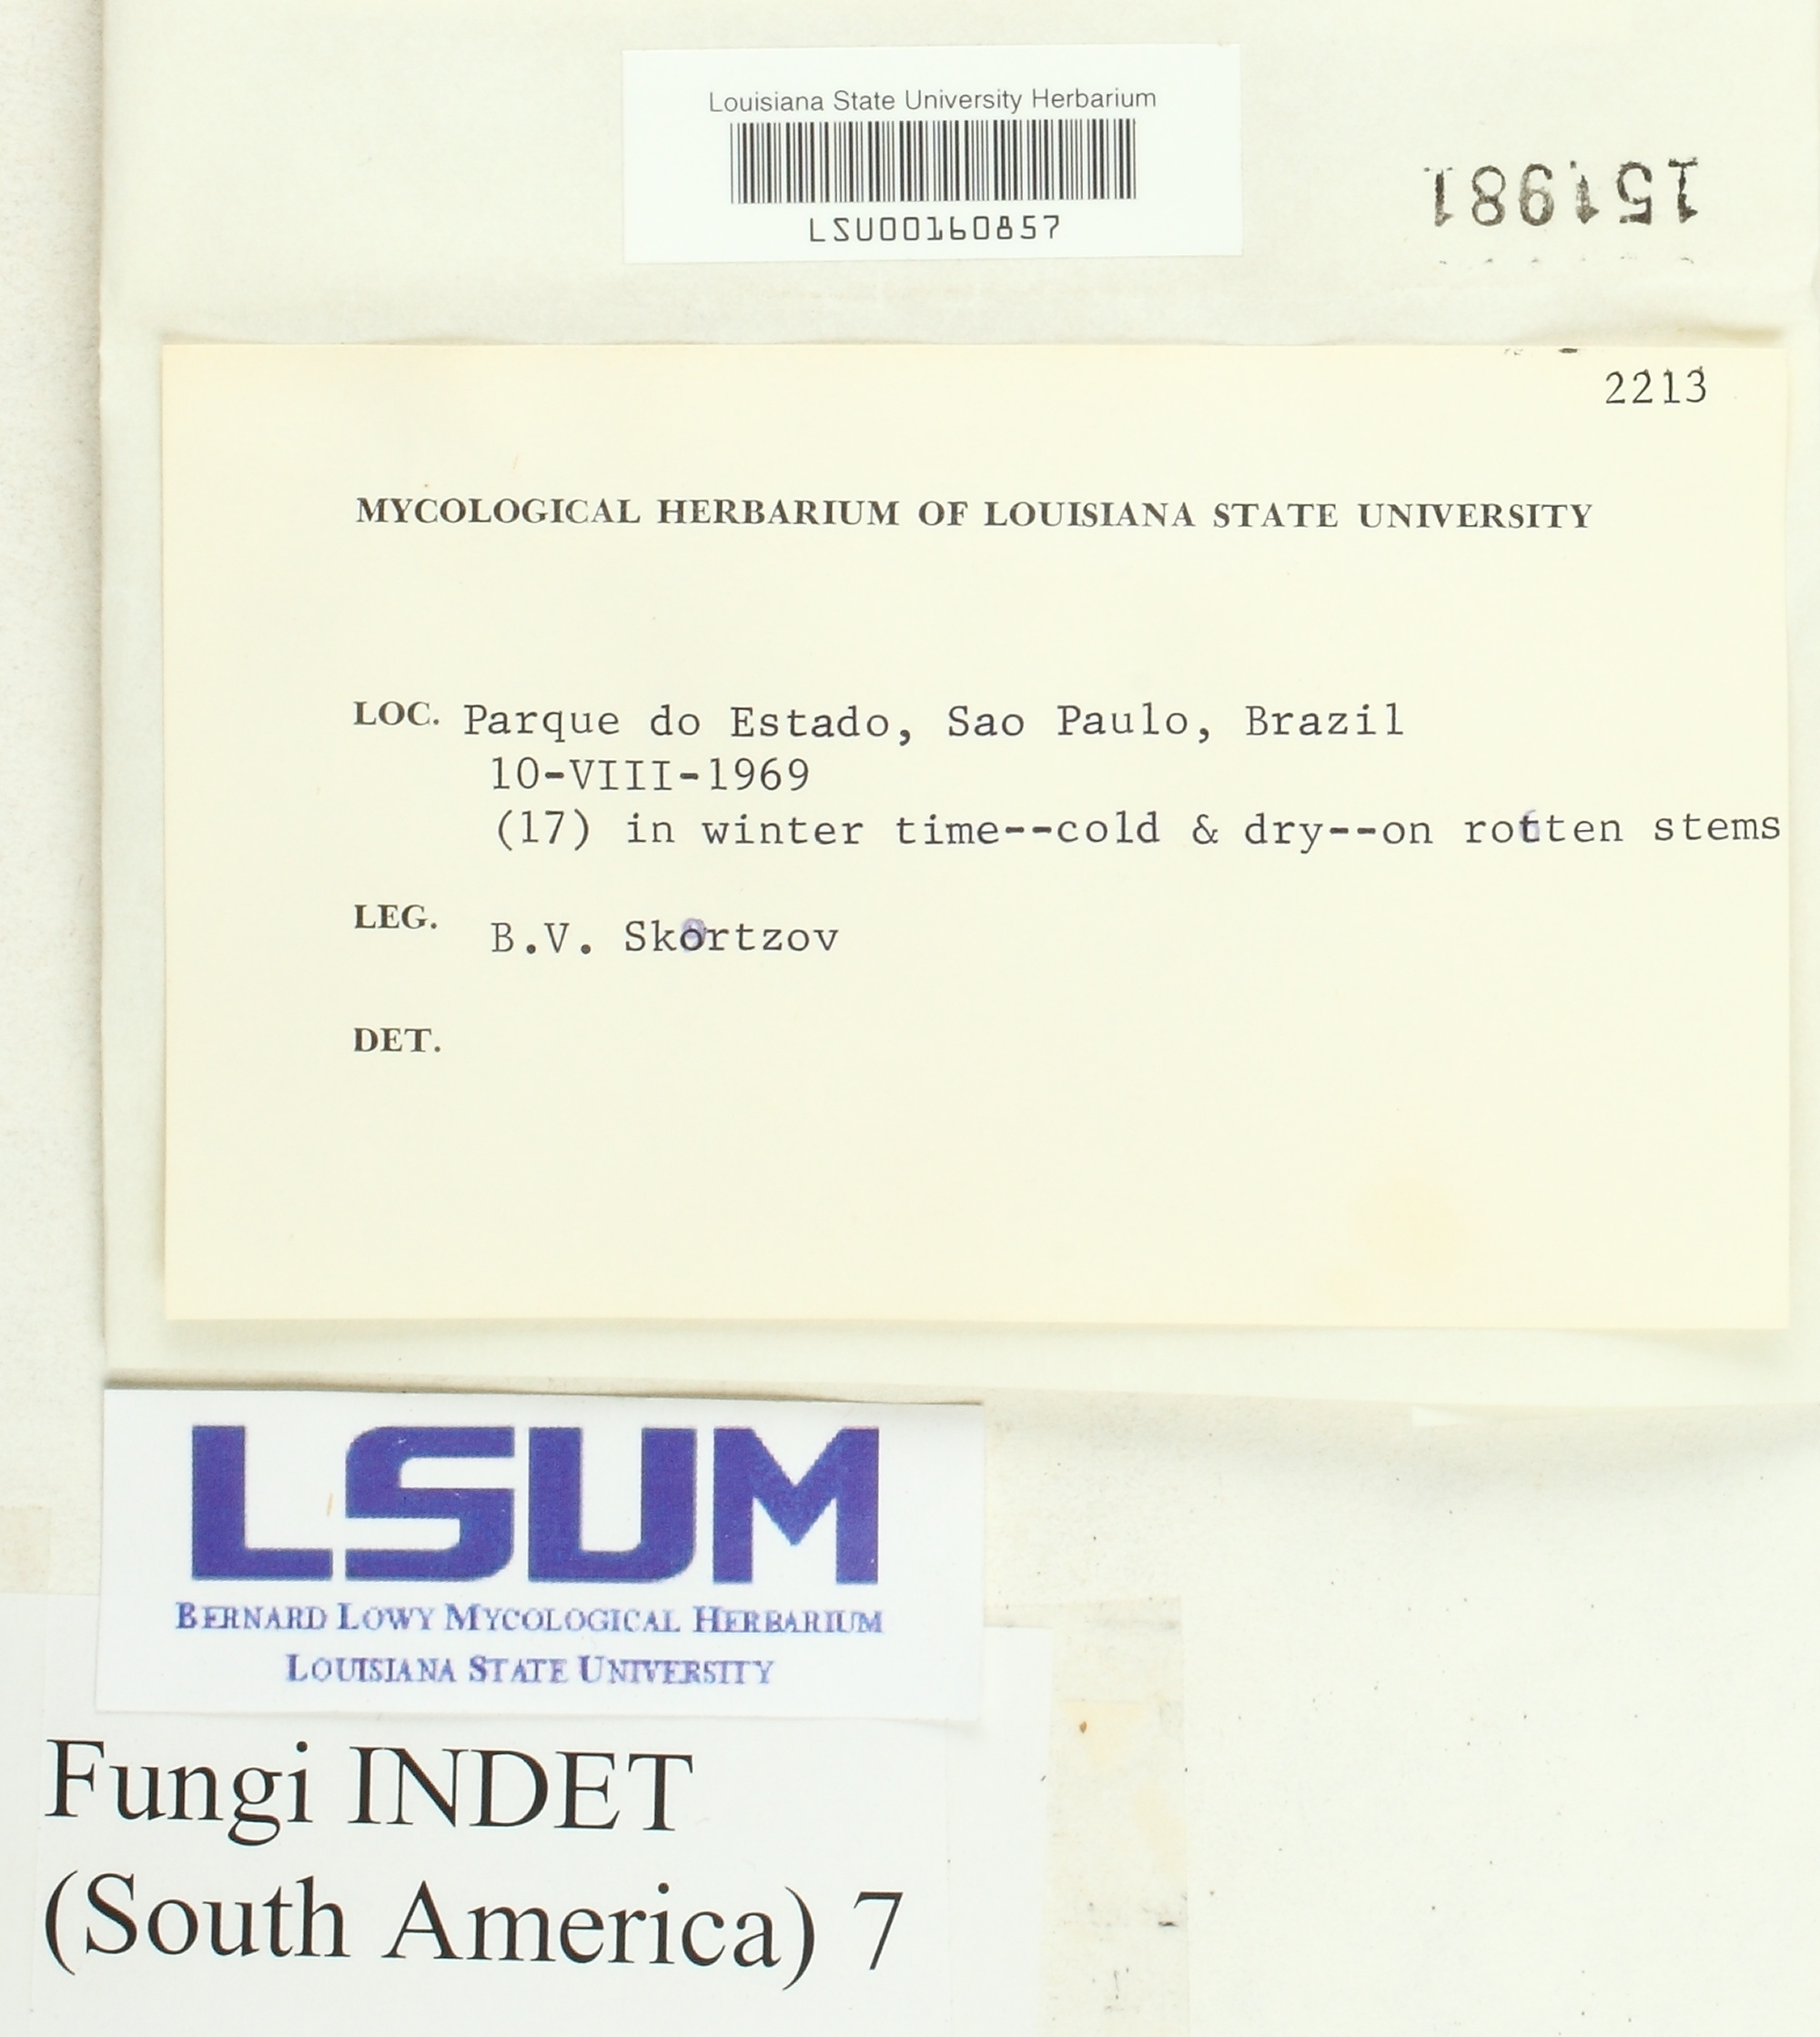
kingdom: Fungi
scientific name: Fungi
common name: Fungi
